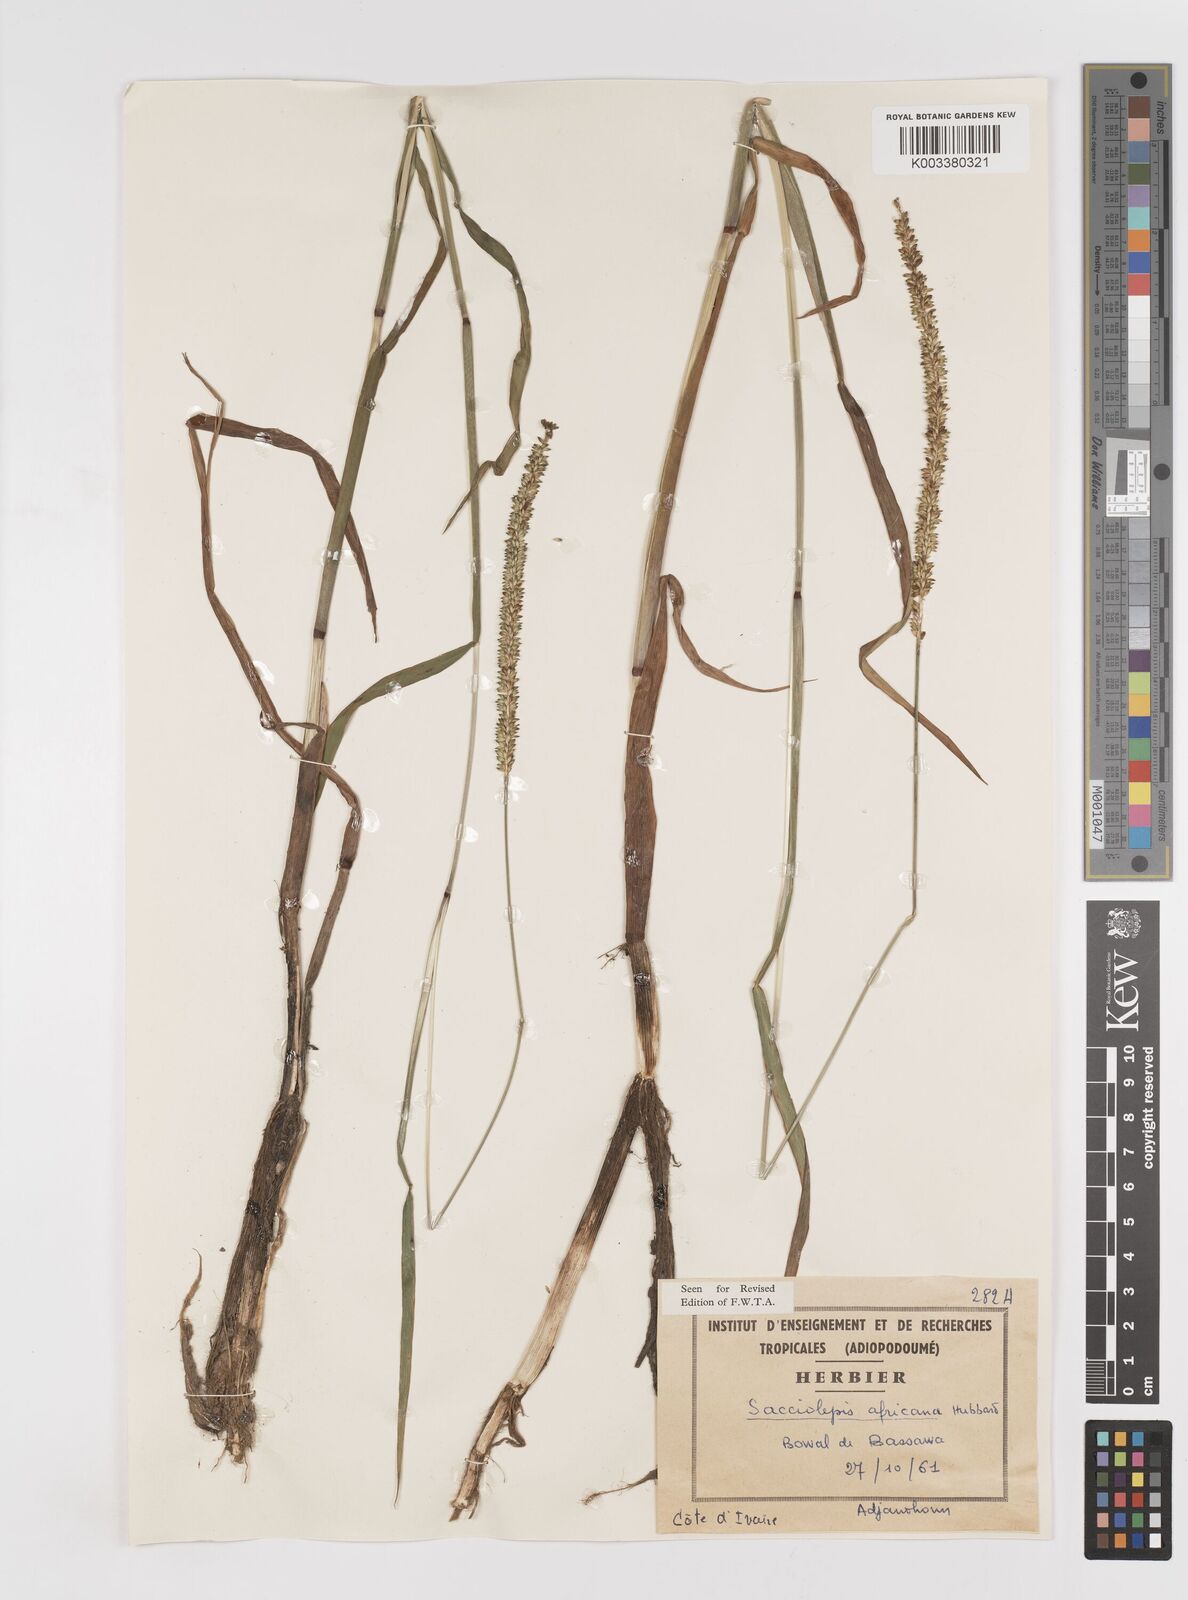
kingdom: Plantae
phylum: Tracheophyta
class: Liliopsida
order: Poales
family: Poaceae
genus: Sacciolepis
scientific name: Sacciolepis africana
